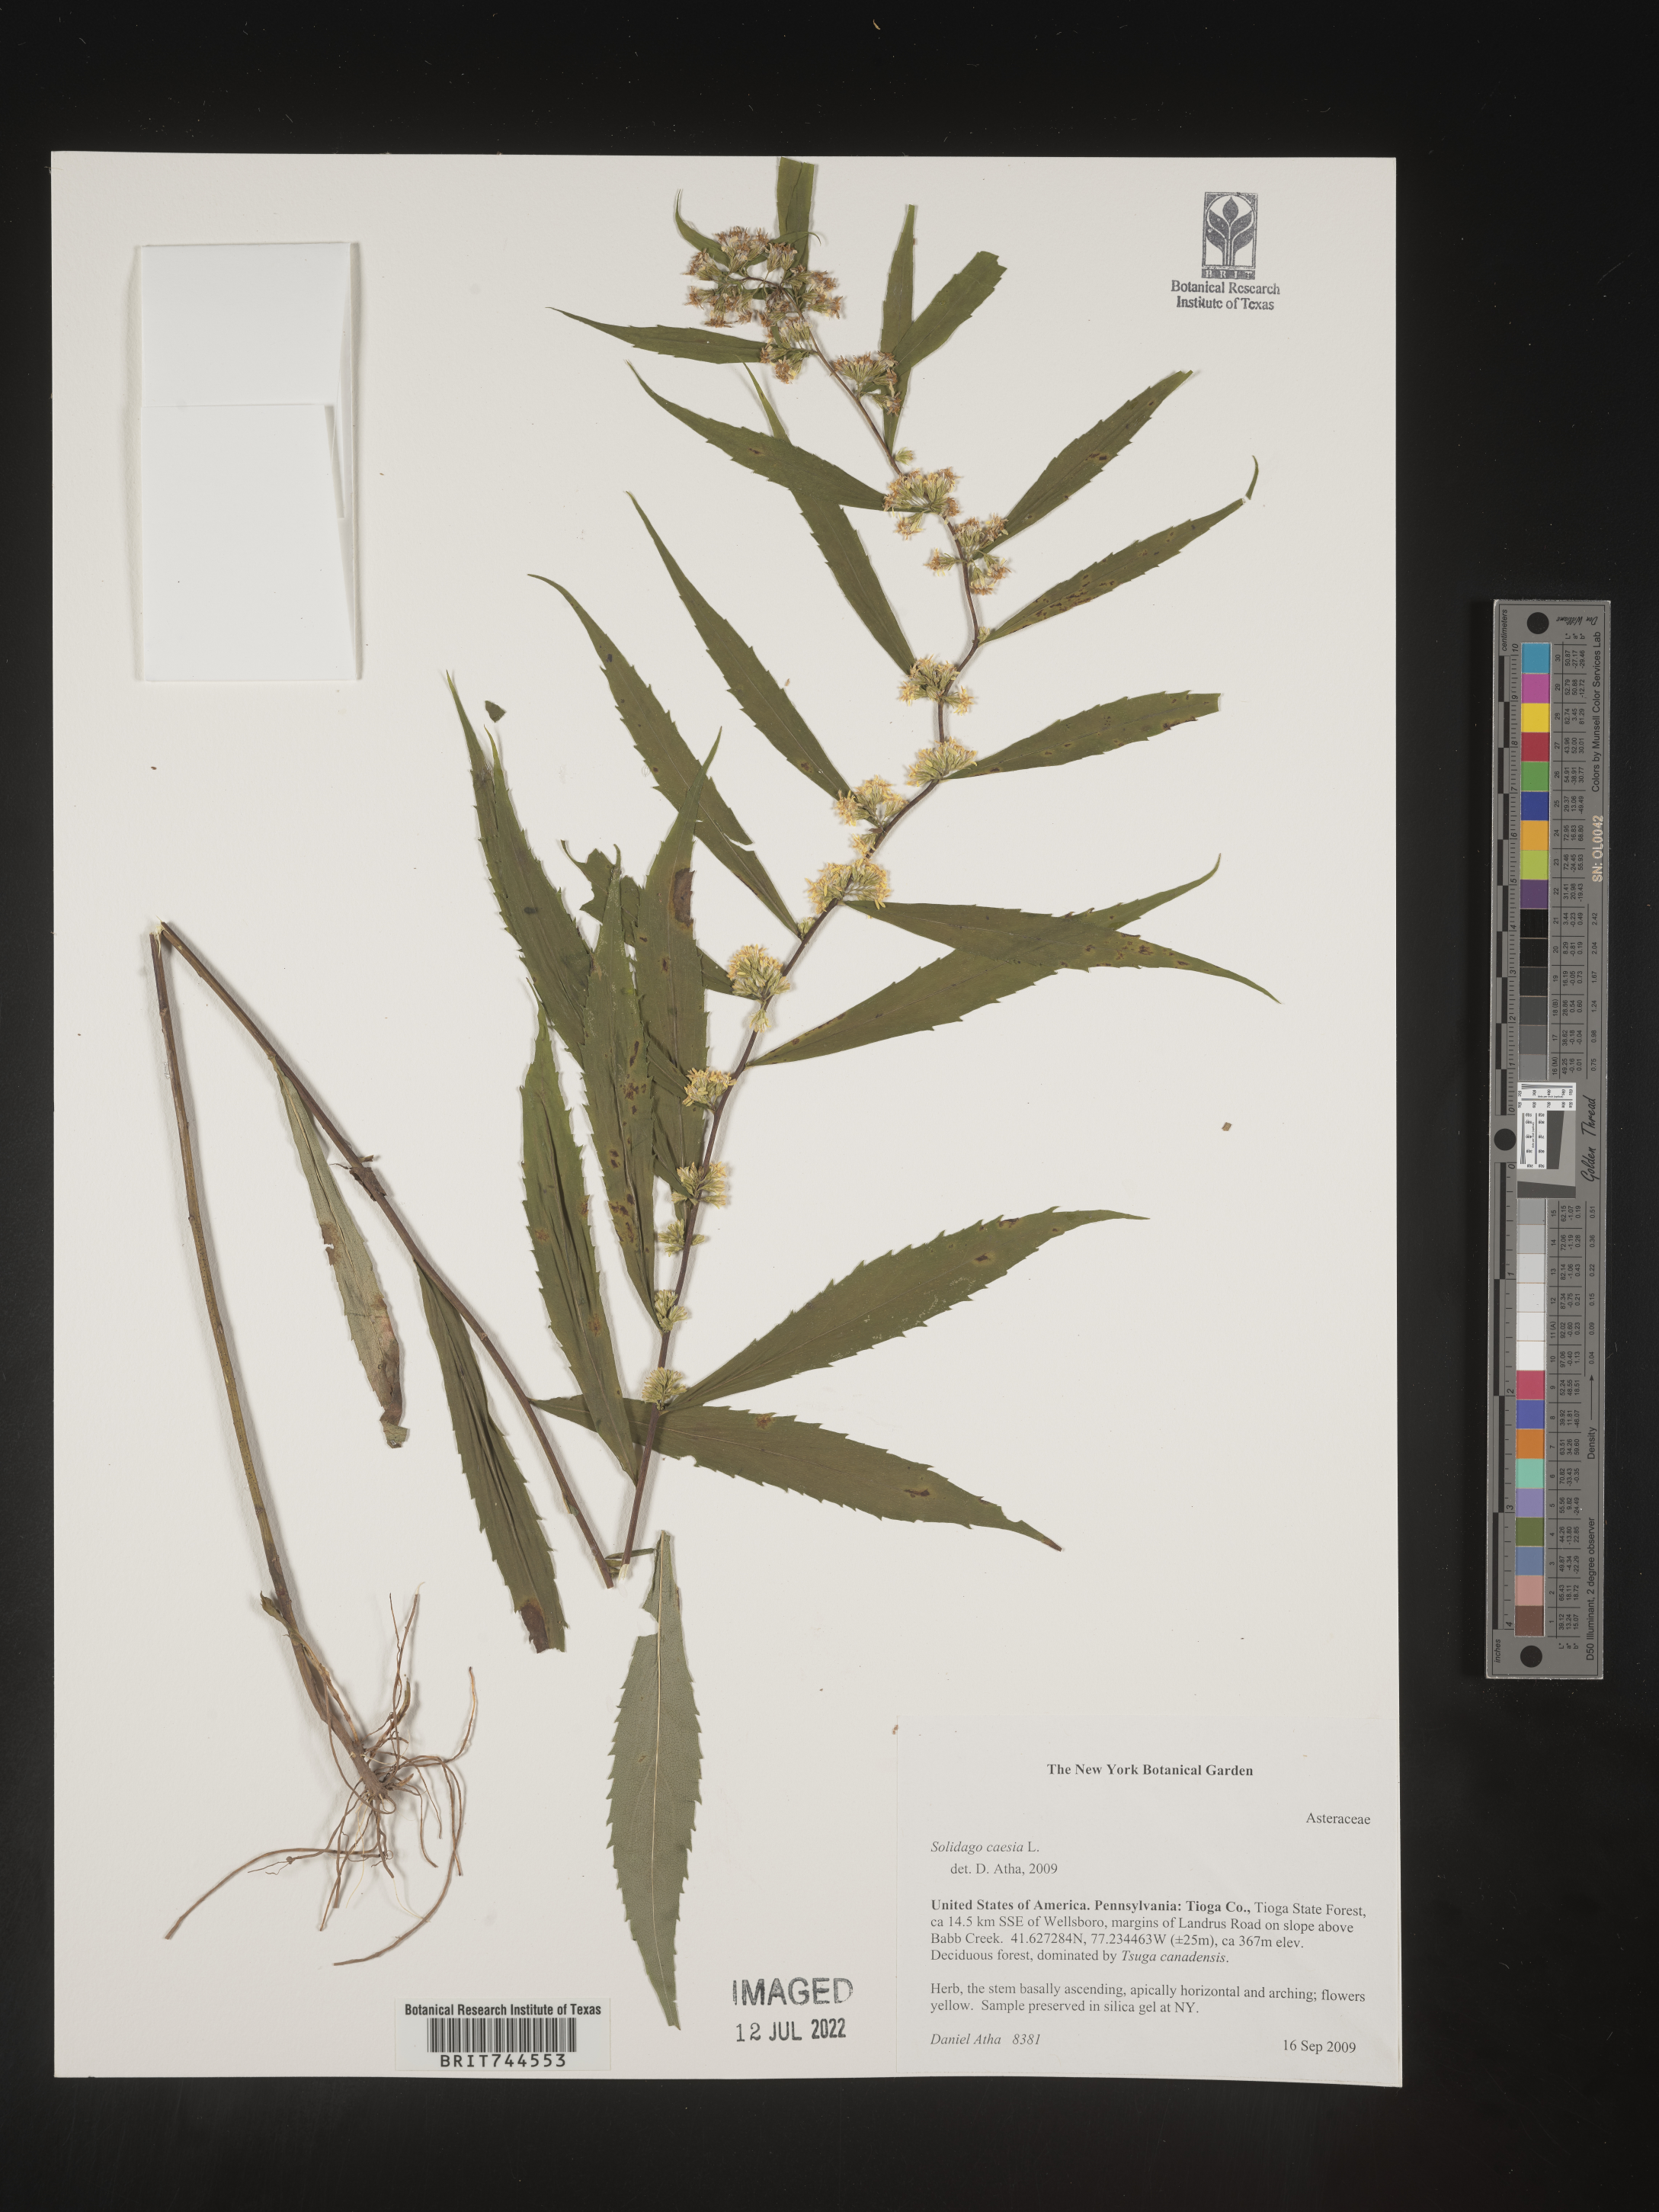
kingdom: Plantae
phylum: Tracheophyta
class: Magnoliopsida
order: Asterales
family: Asteraceae
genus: Solidago
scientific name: Solidago caesia
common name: Woodland goldenrod
